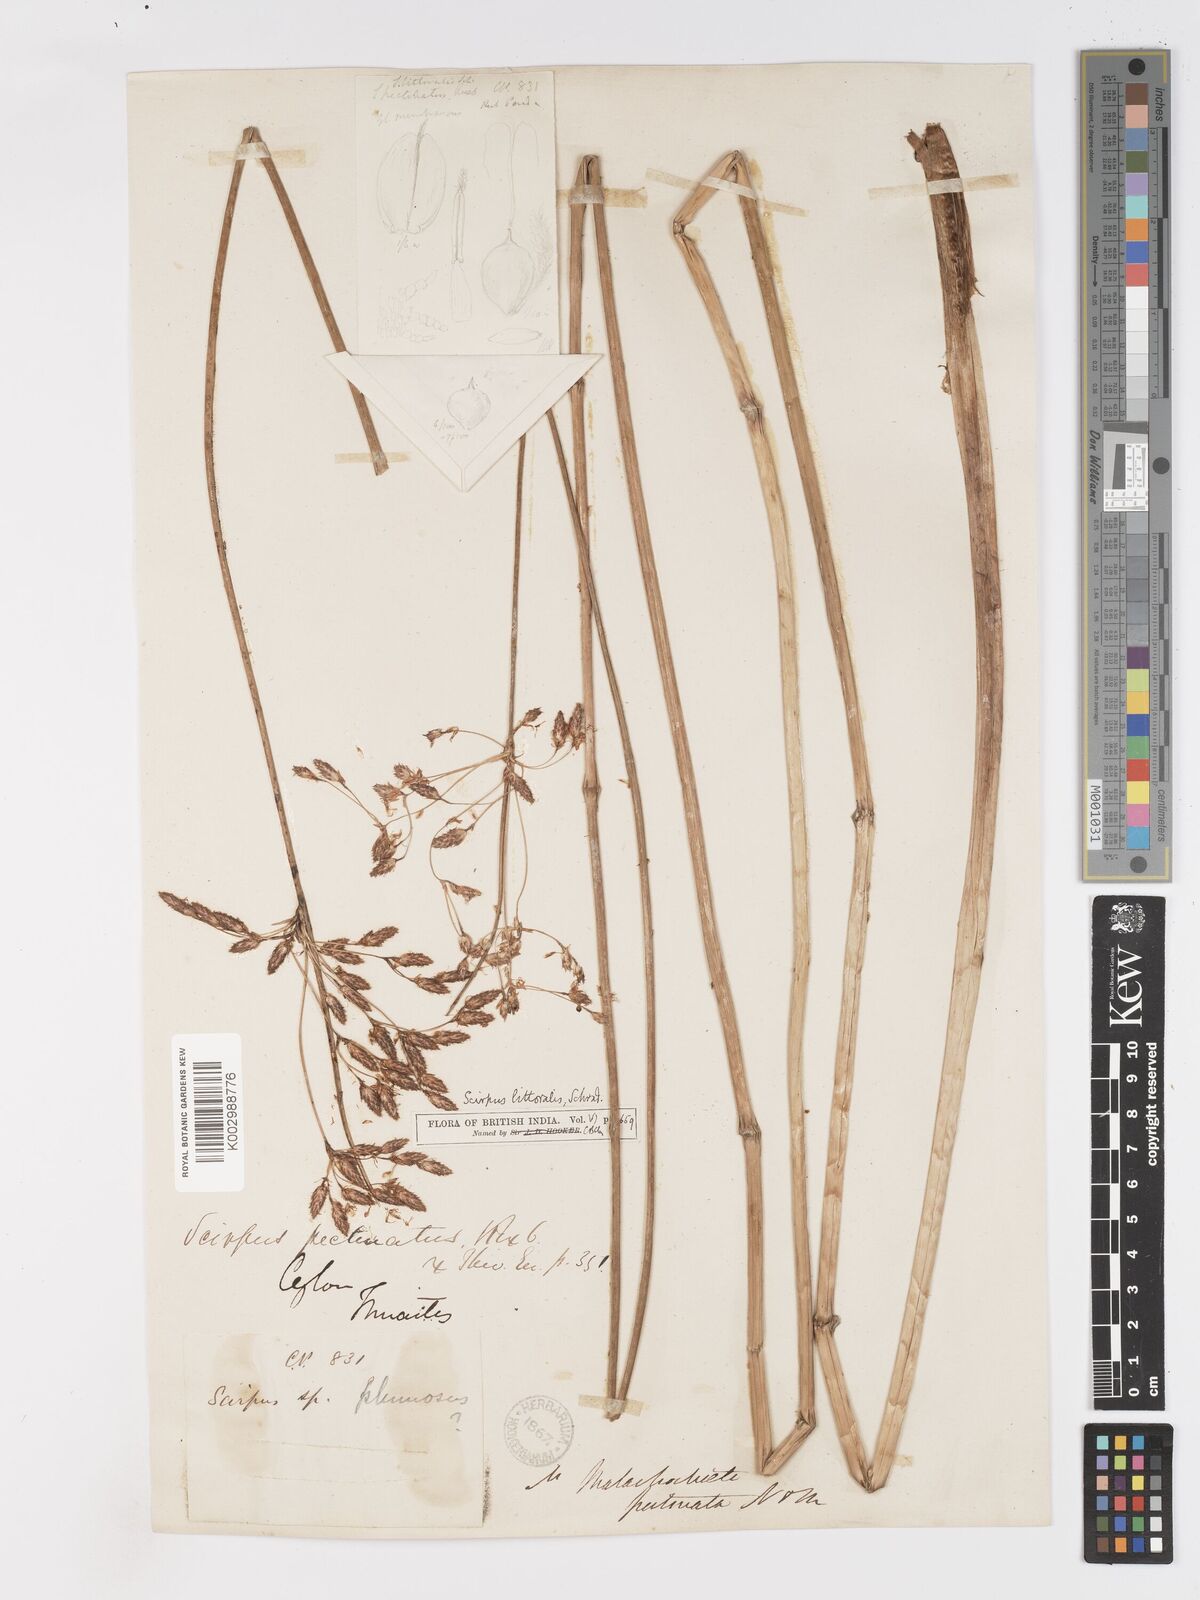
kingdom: Plantae
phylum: Tracheophyta
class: Liliopsida
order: Poales
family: Cyperaceae
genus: Schoenoplectus
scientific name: Schoenoplectus litoralis
